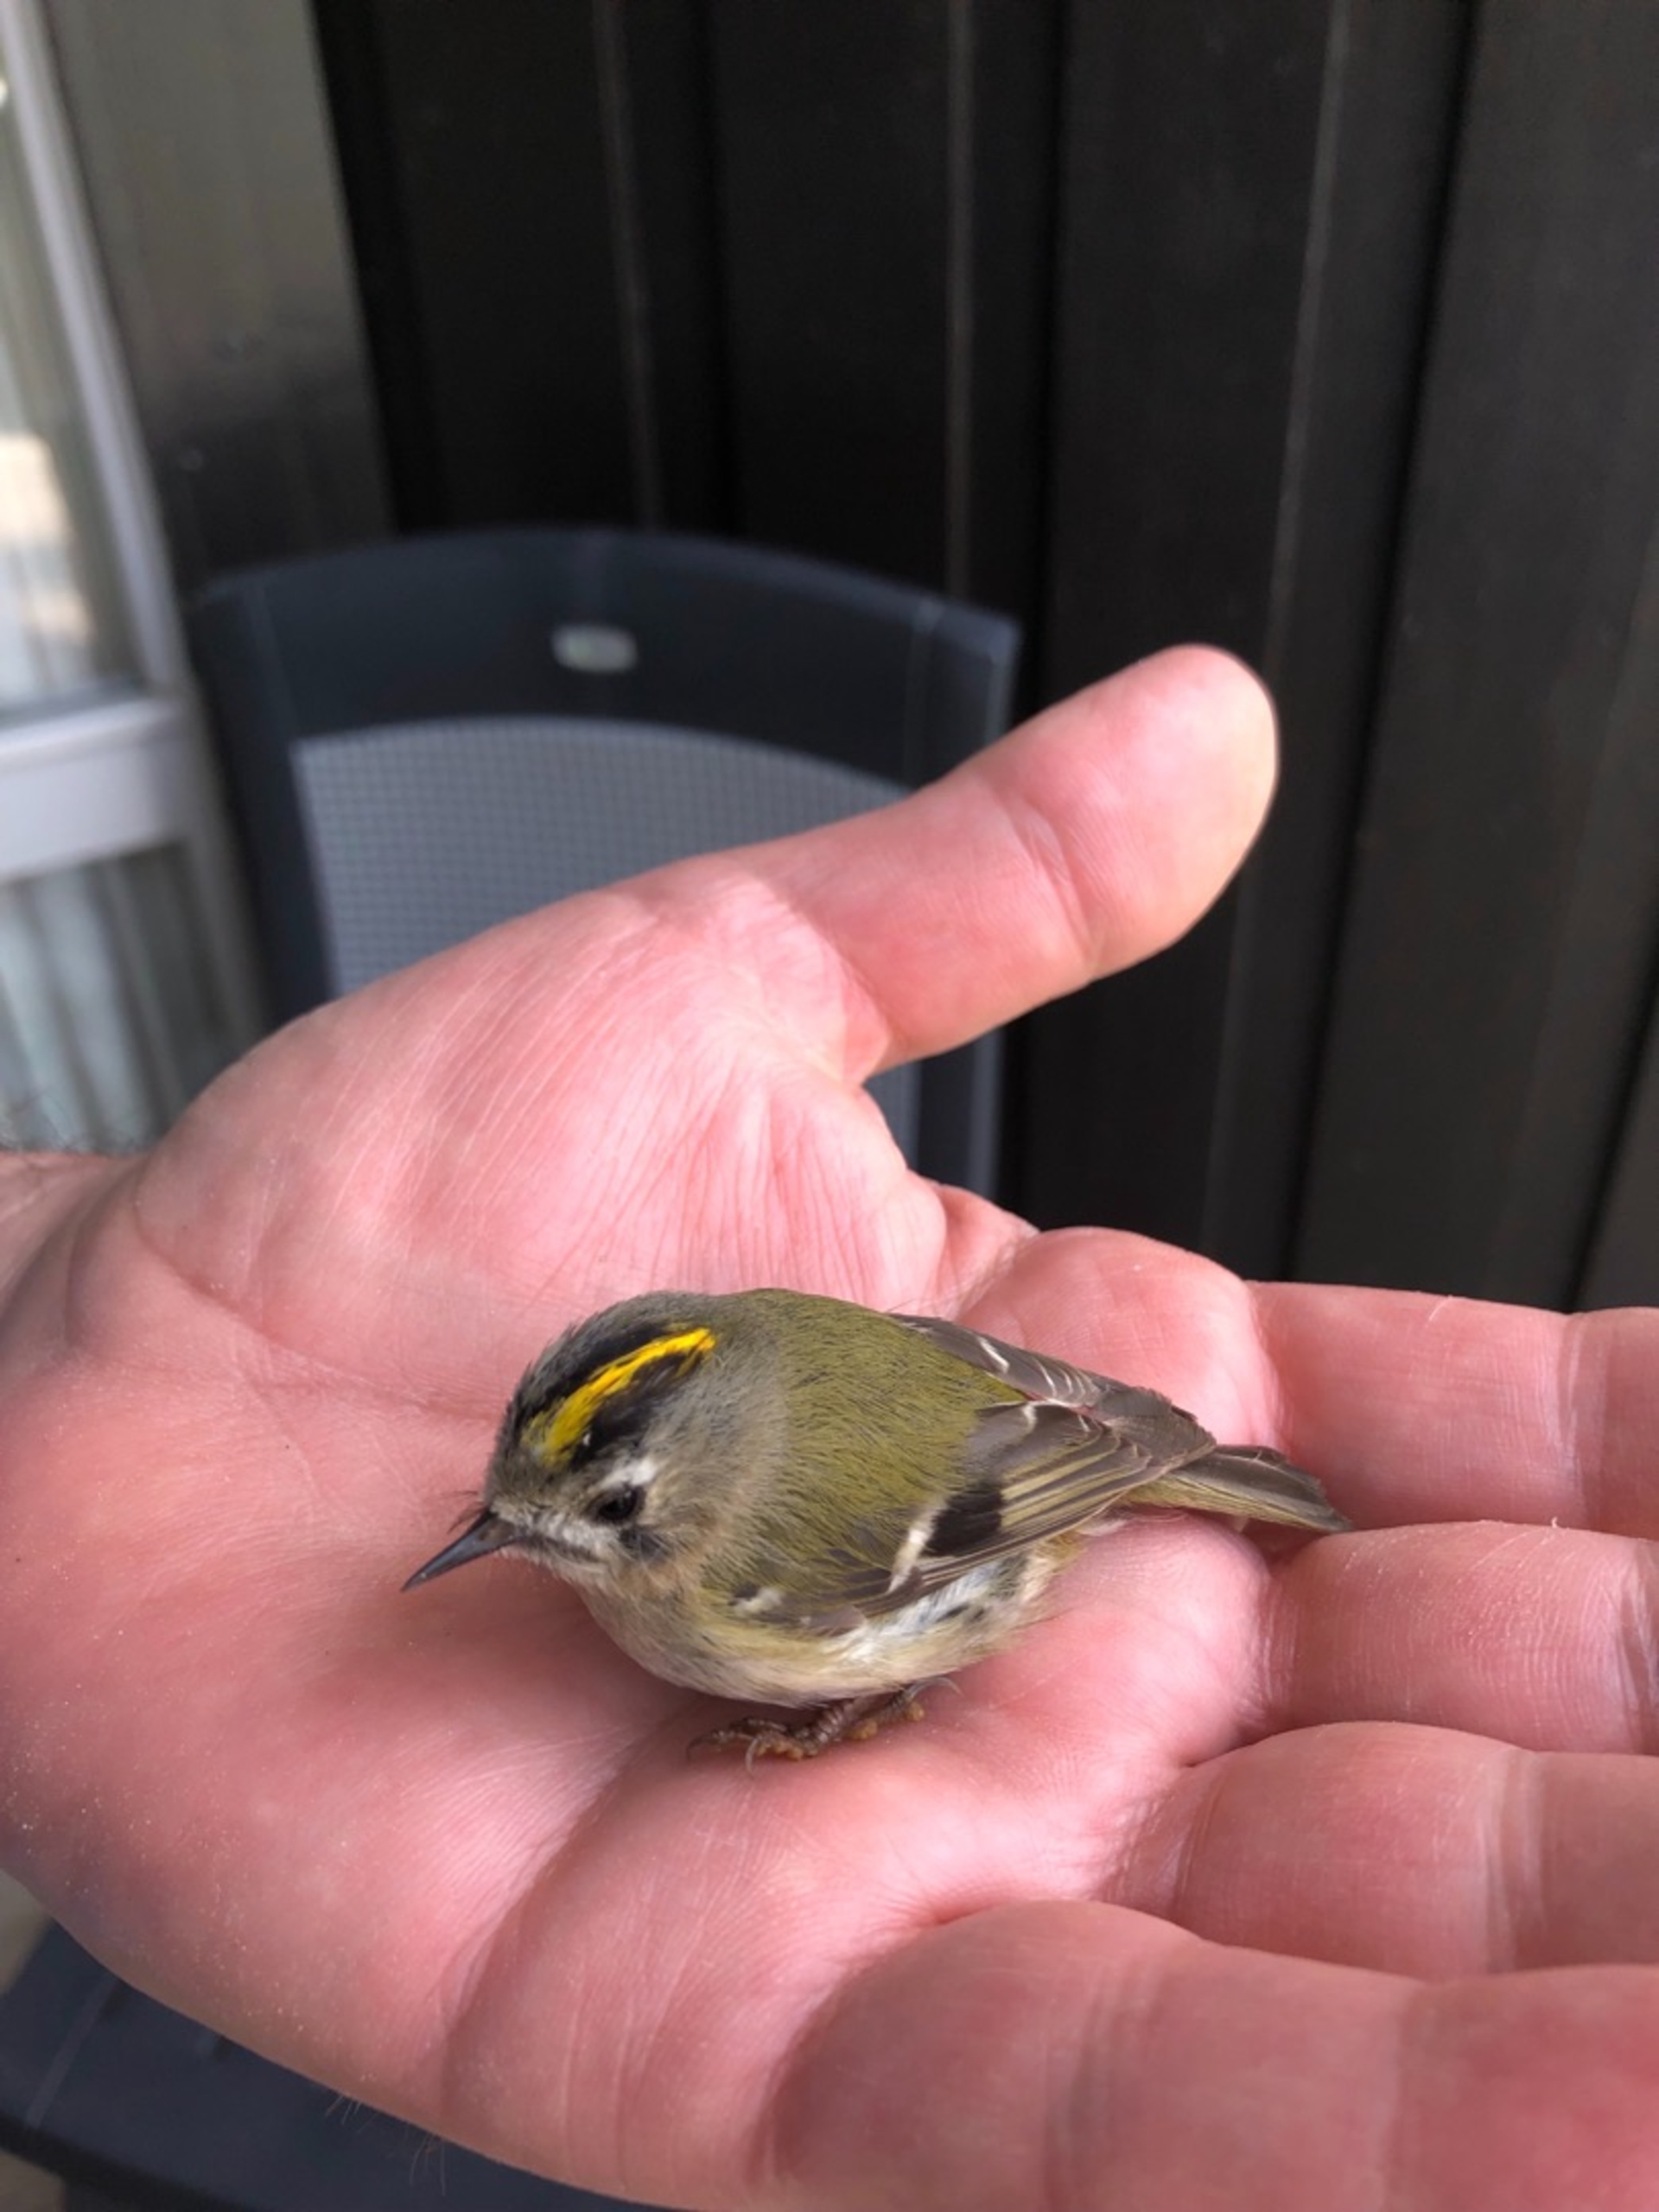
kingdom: Animalia
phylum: Chordata
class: Aves
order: Passeriformes
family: Regulidae
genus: Regulus
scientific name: Regulus regulus
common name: Fuglekonge
